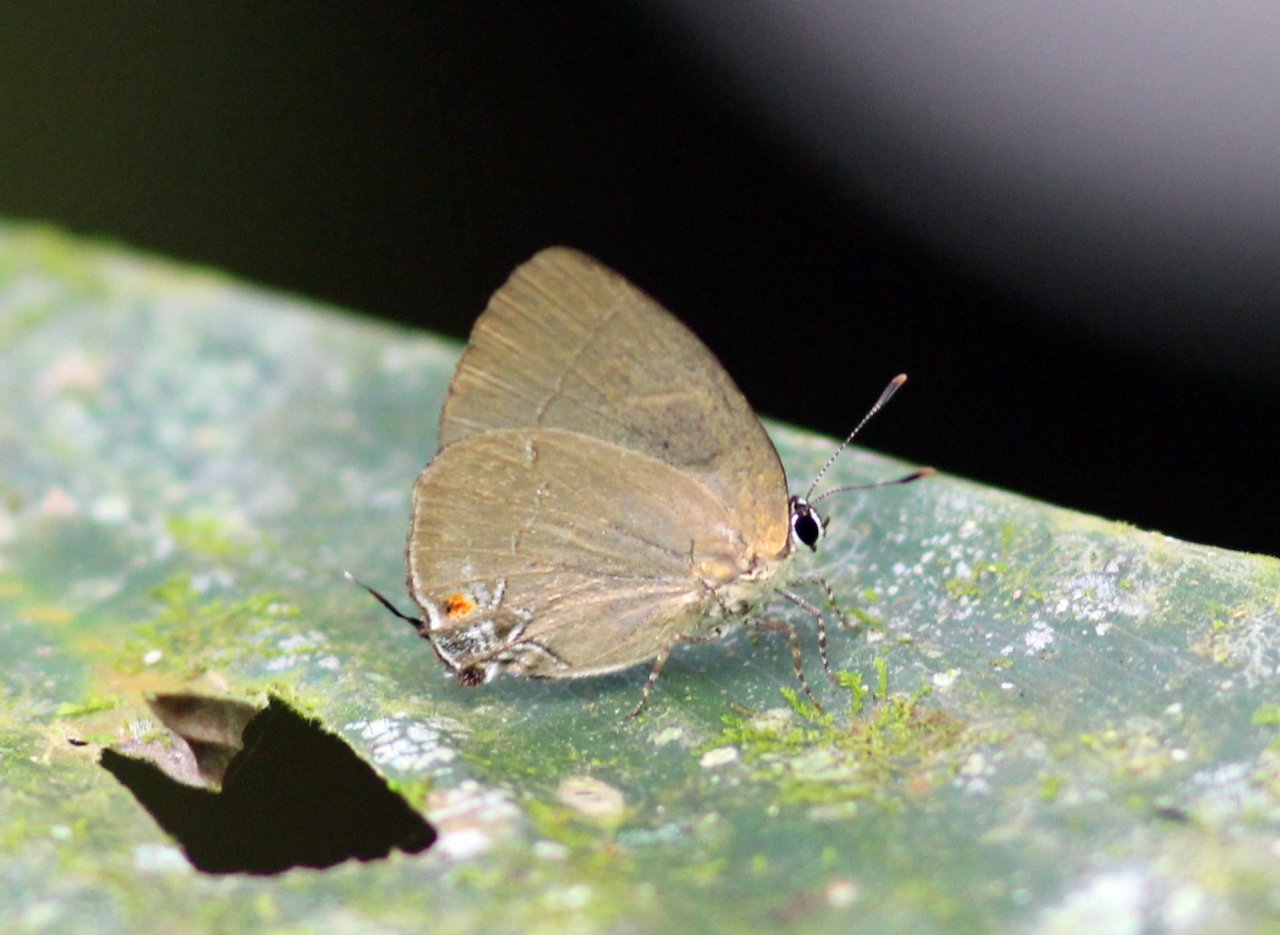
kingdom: Animalia
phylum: Arthropoda
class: Insecta
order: Lepidoptera
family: Lycaenidae
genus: Theclopsis
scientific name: Theclopsis
